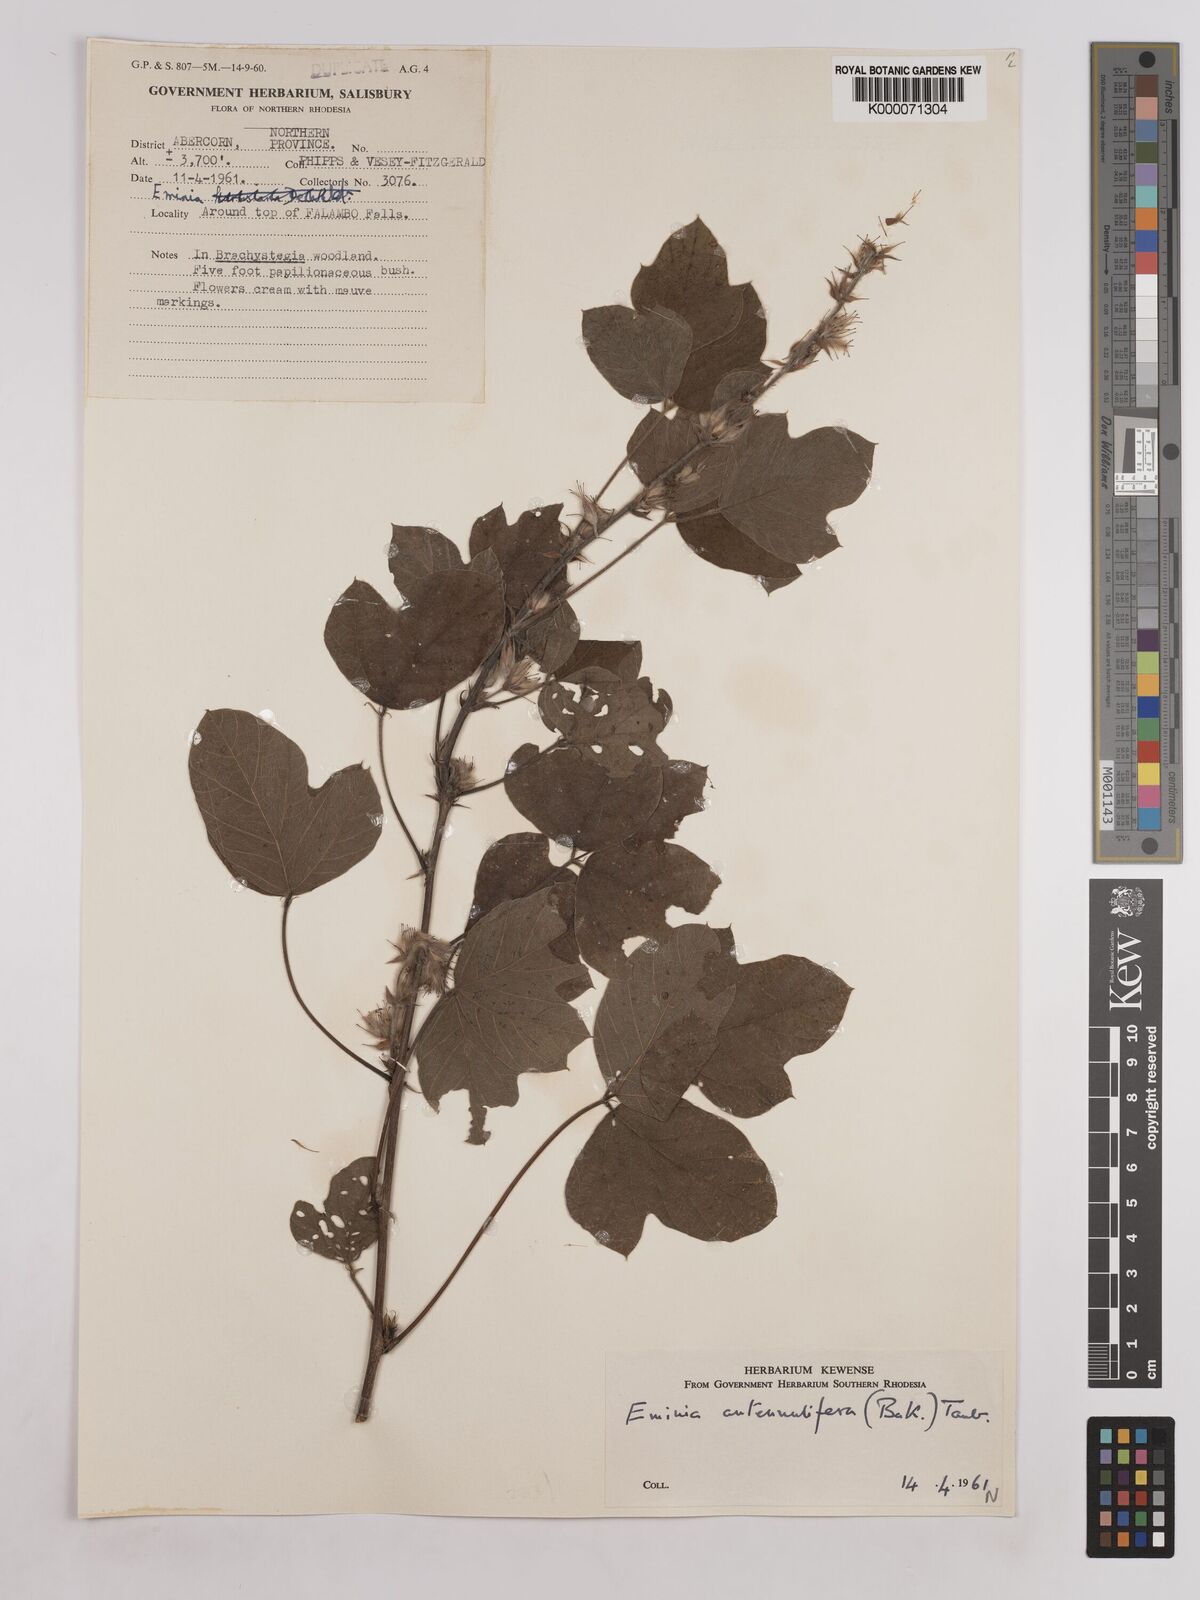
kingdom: Plantae
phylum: Tracheophyta
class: Magnoliopsida
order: Fabales
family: Fabaceae
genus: Eminia
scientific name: Eminia antennulifera
